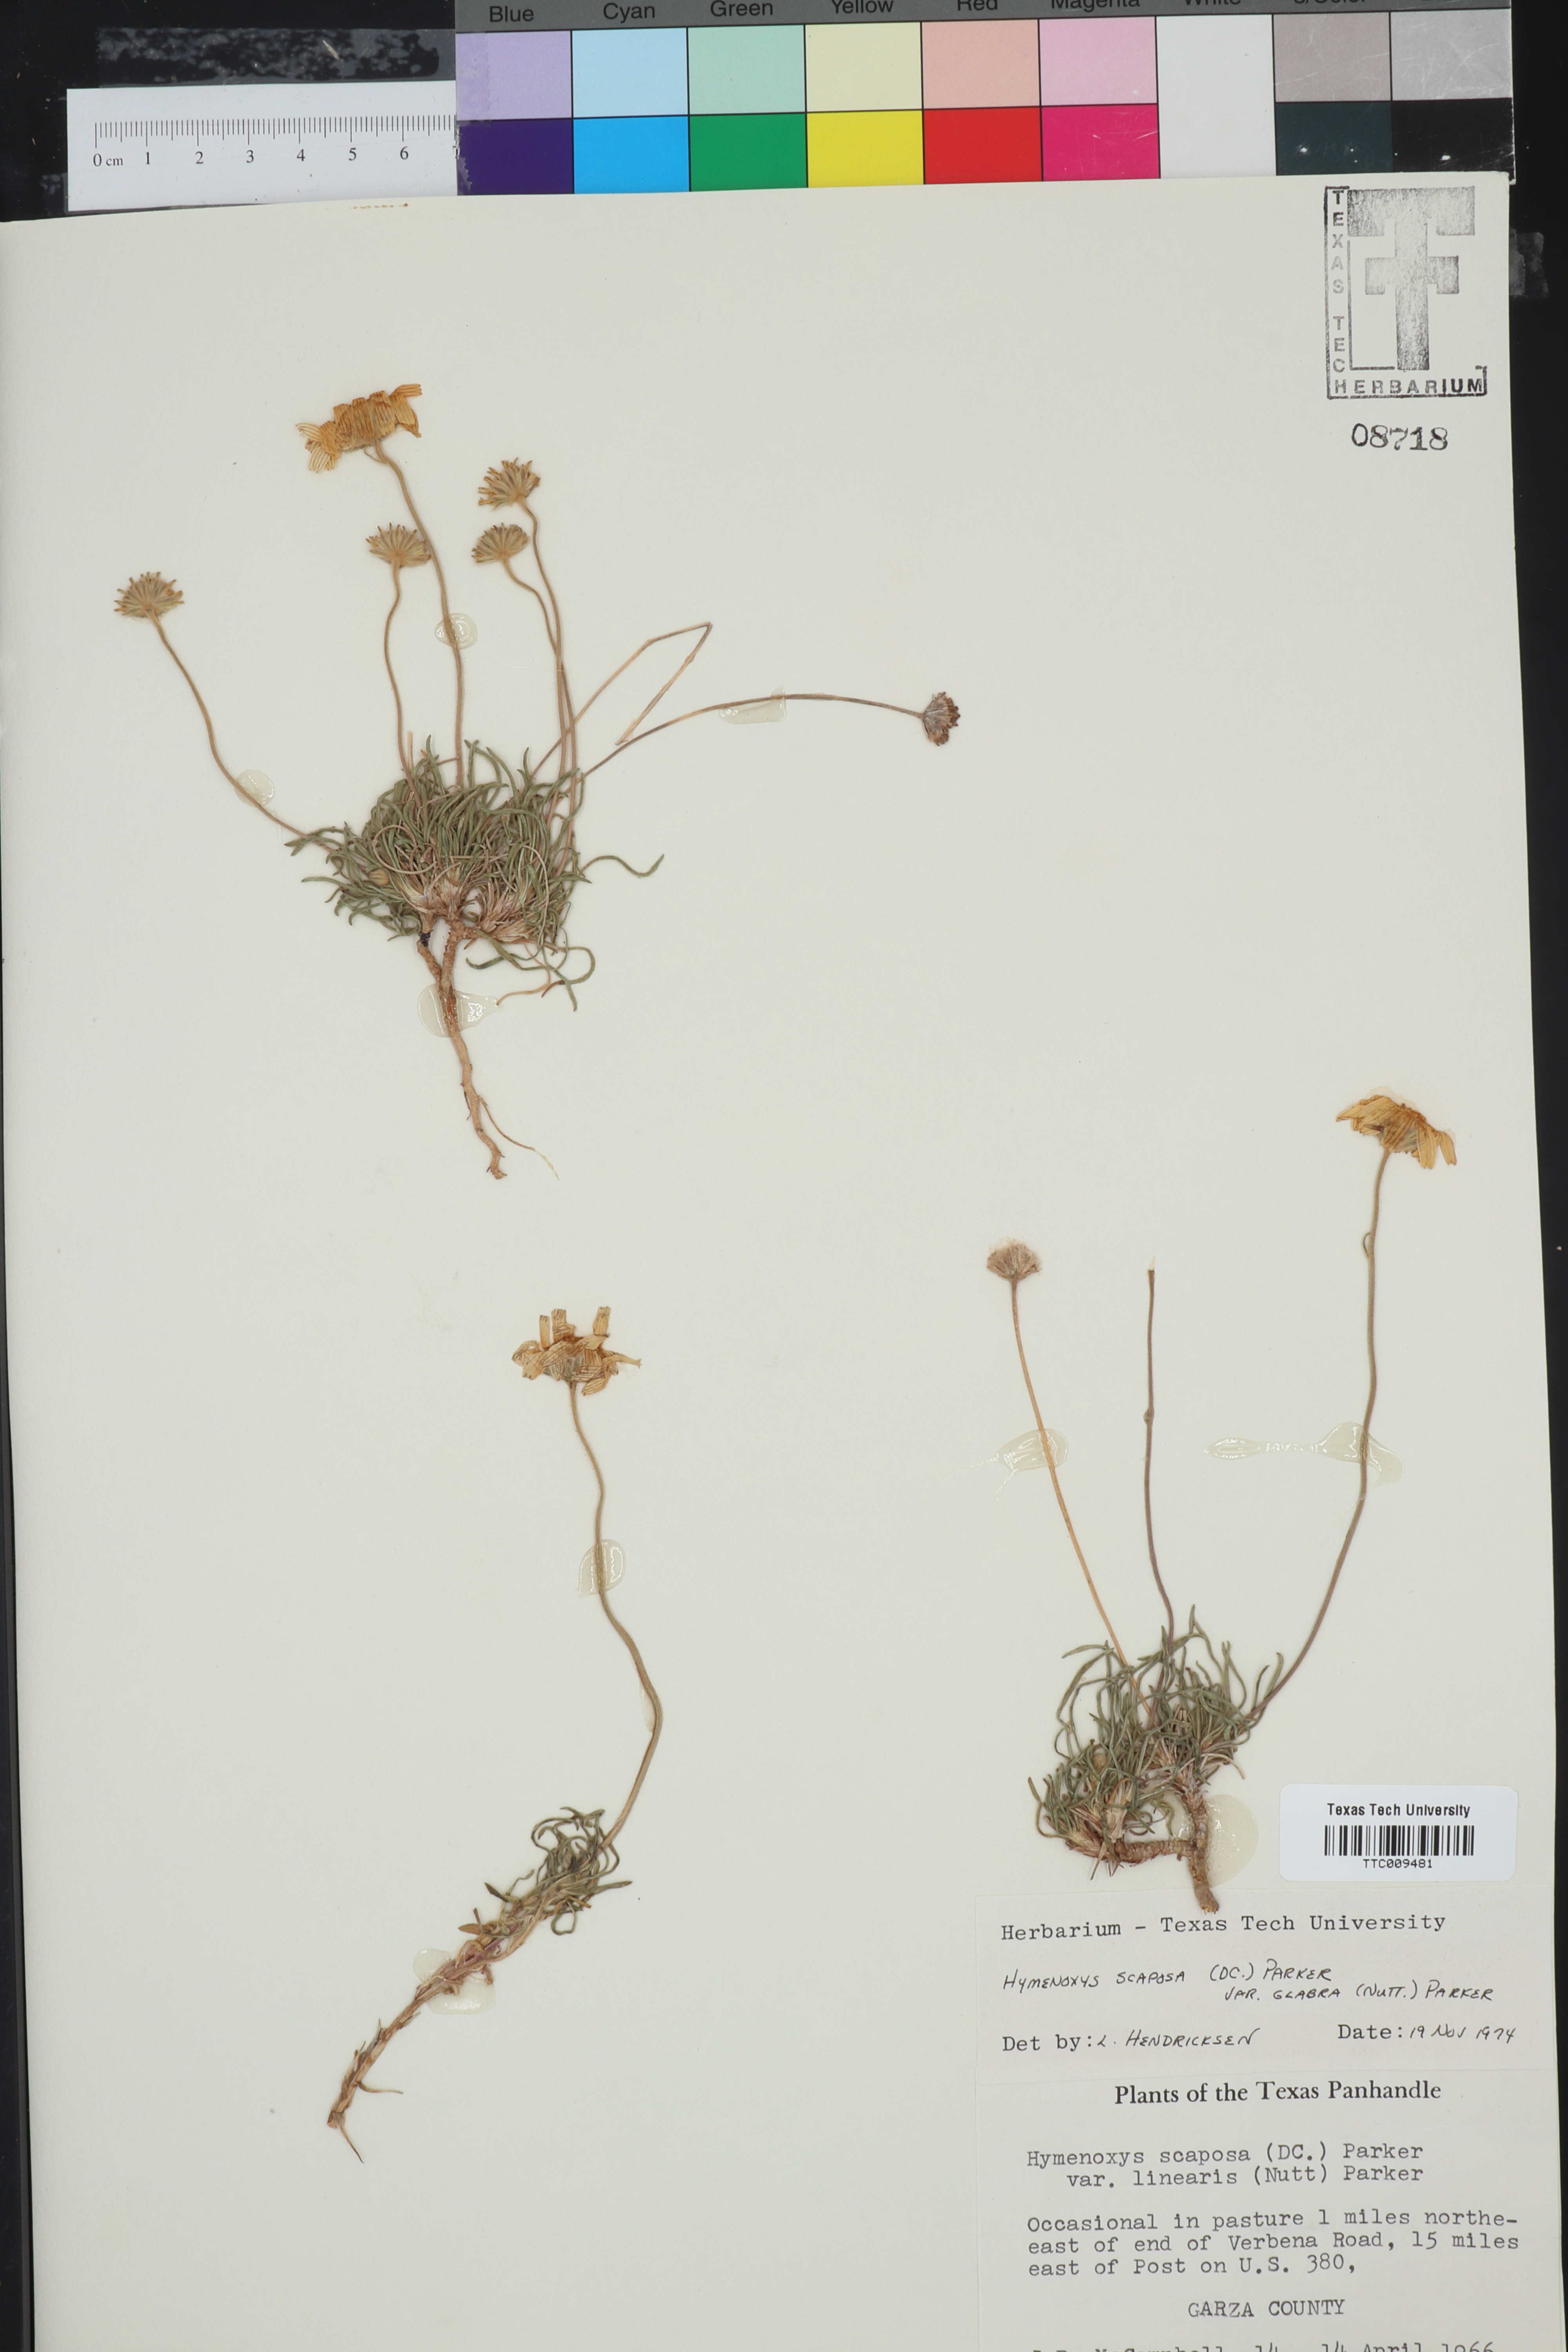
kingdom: Plantae
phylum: Tracheophyta
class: Magnoliopsida
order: Asterales
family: Asteraceae
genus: Tetraneuris
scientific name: Tetraneuris scaposa
